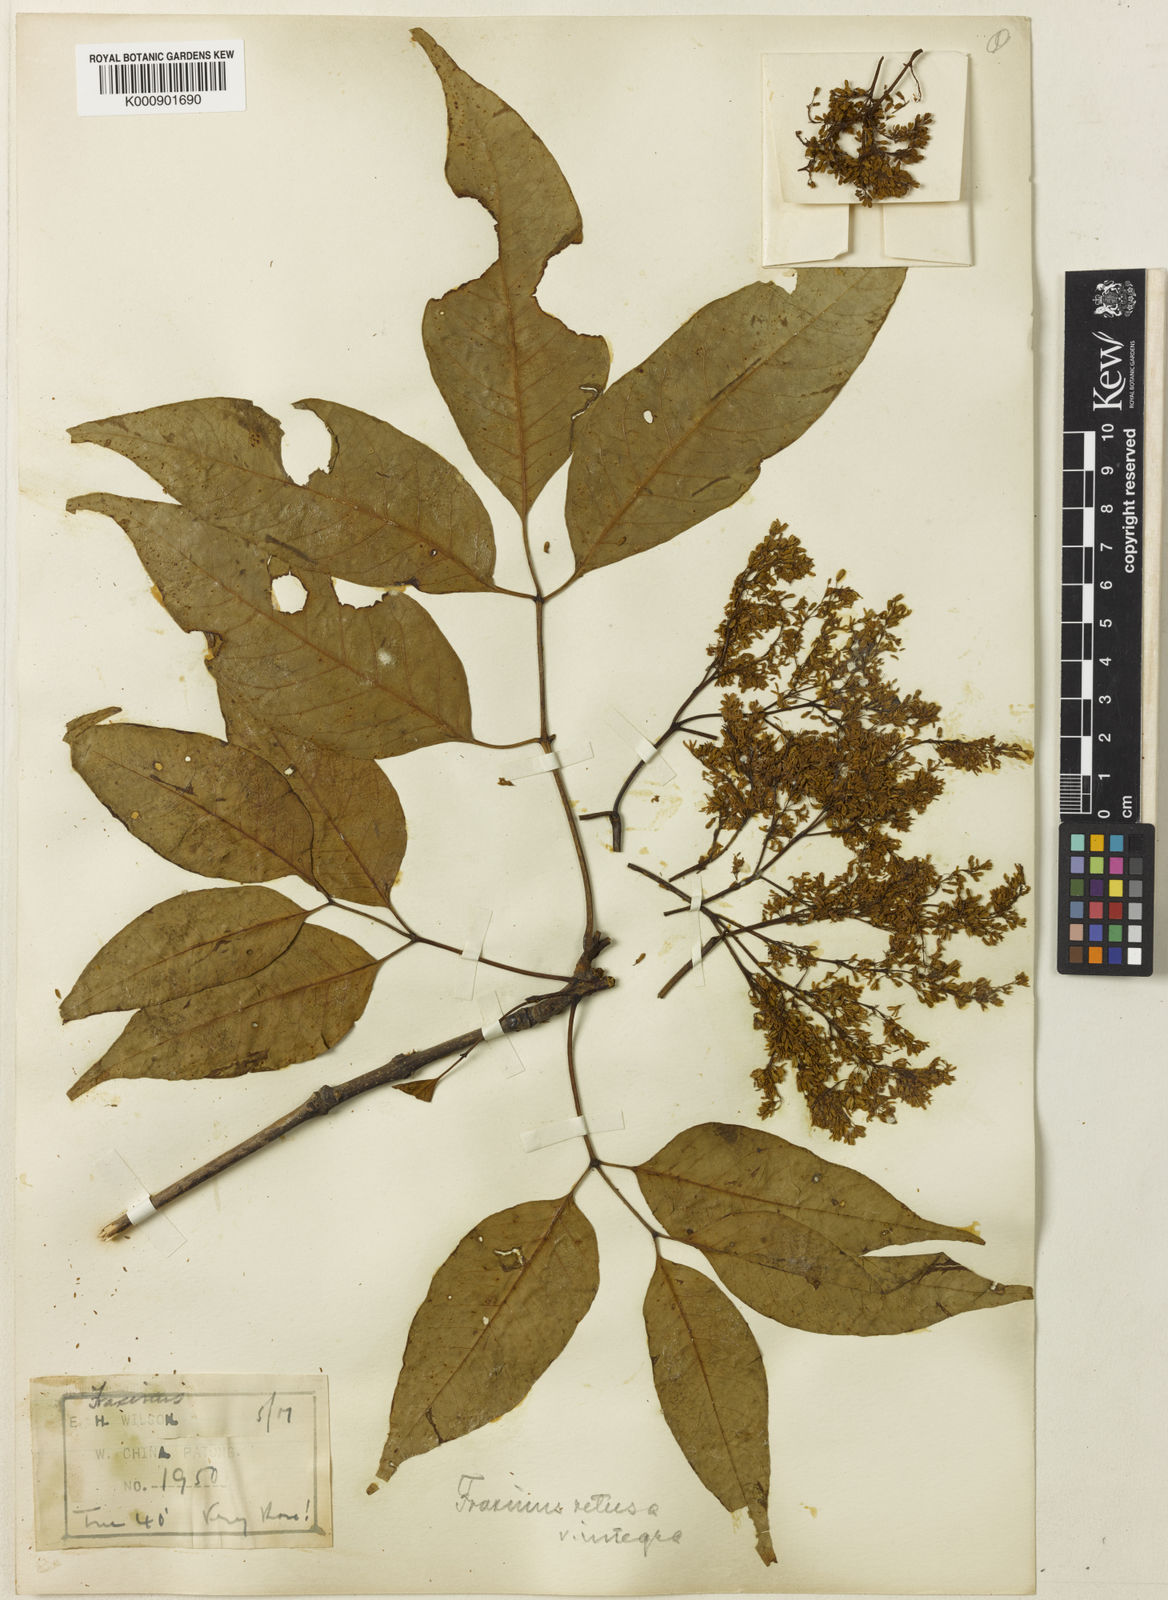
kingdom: Plantae
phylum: Tracheophyta
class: Magnoliopsida
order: Lamiales
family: Oleaceae
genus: Fraxinus
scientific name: Fraxinus floribunda
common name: East indian ash
